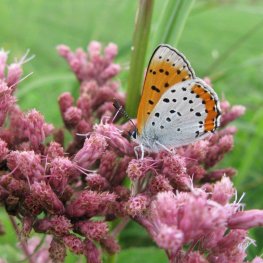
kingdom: Animalia
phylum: Arthropoda
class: Insecta
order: Lepidoptera
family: Sesiidae
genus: Sesia
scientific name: Sesia Lycaena hyllus
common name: Bronze Copper
